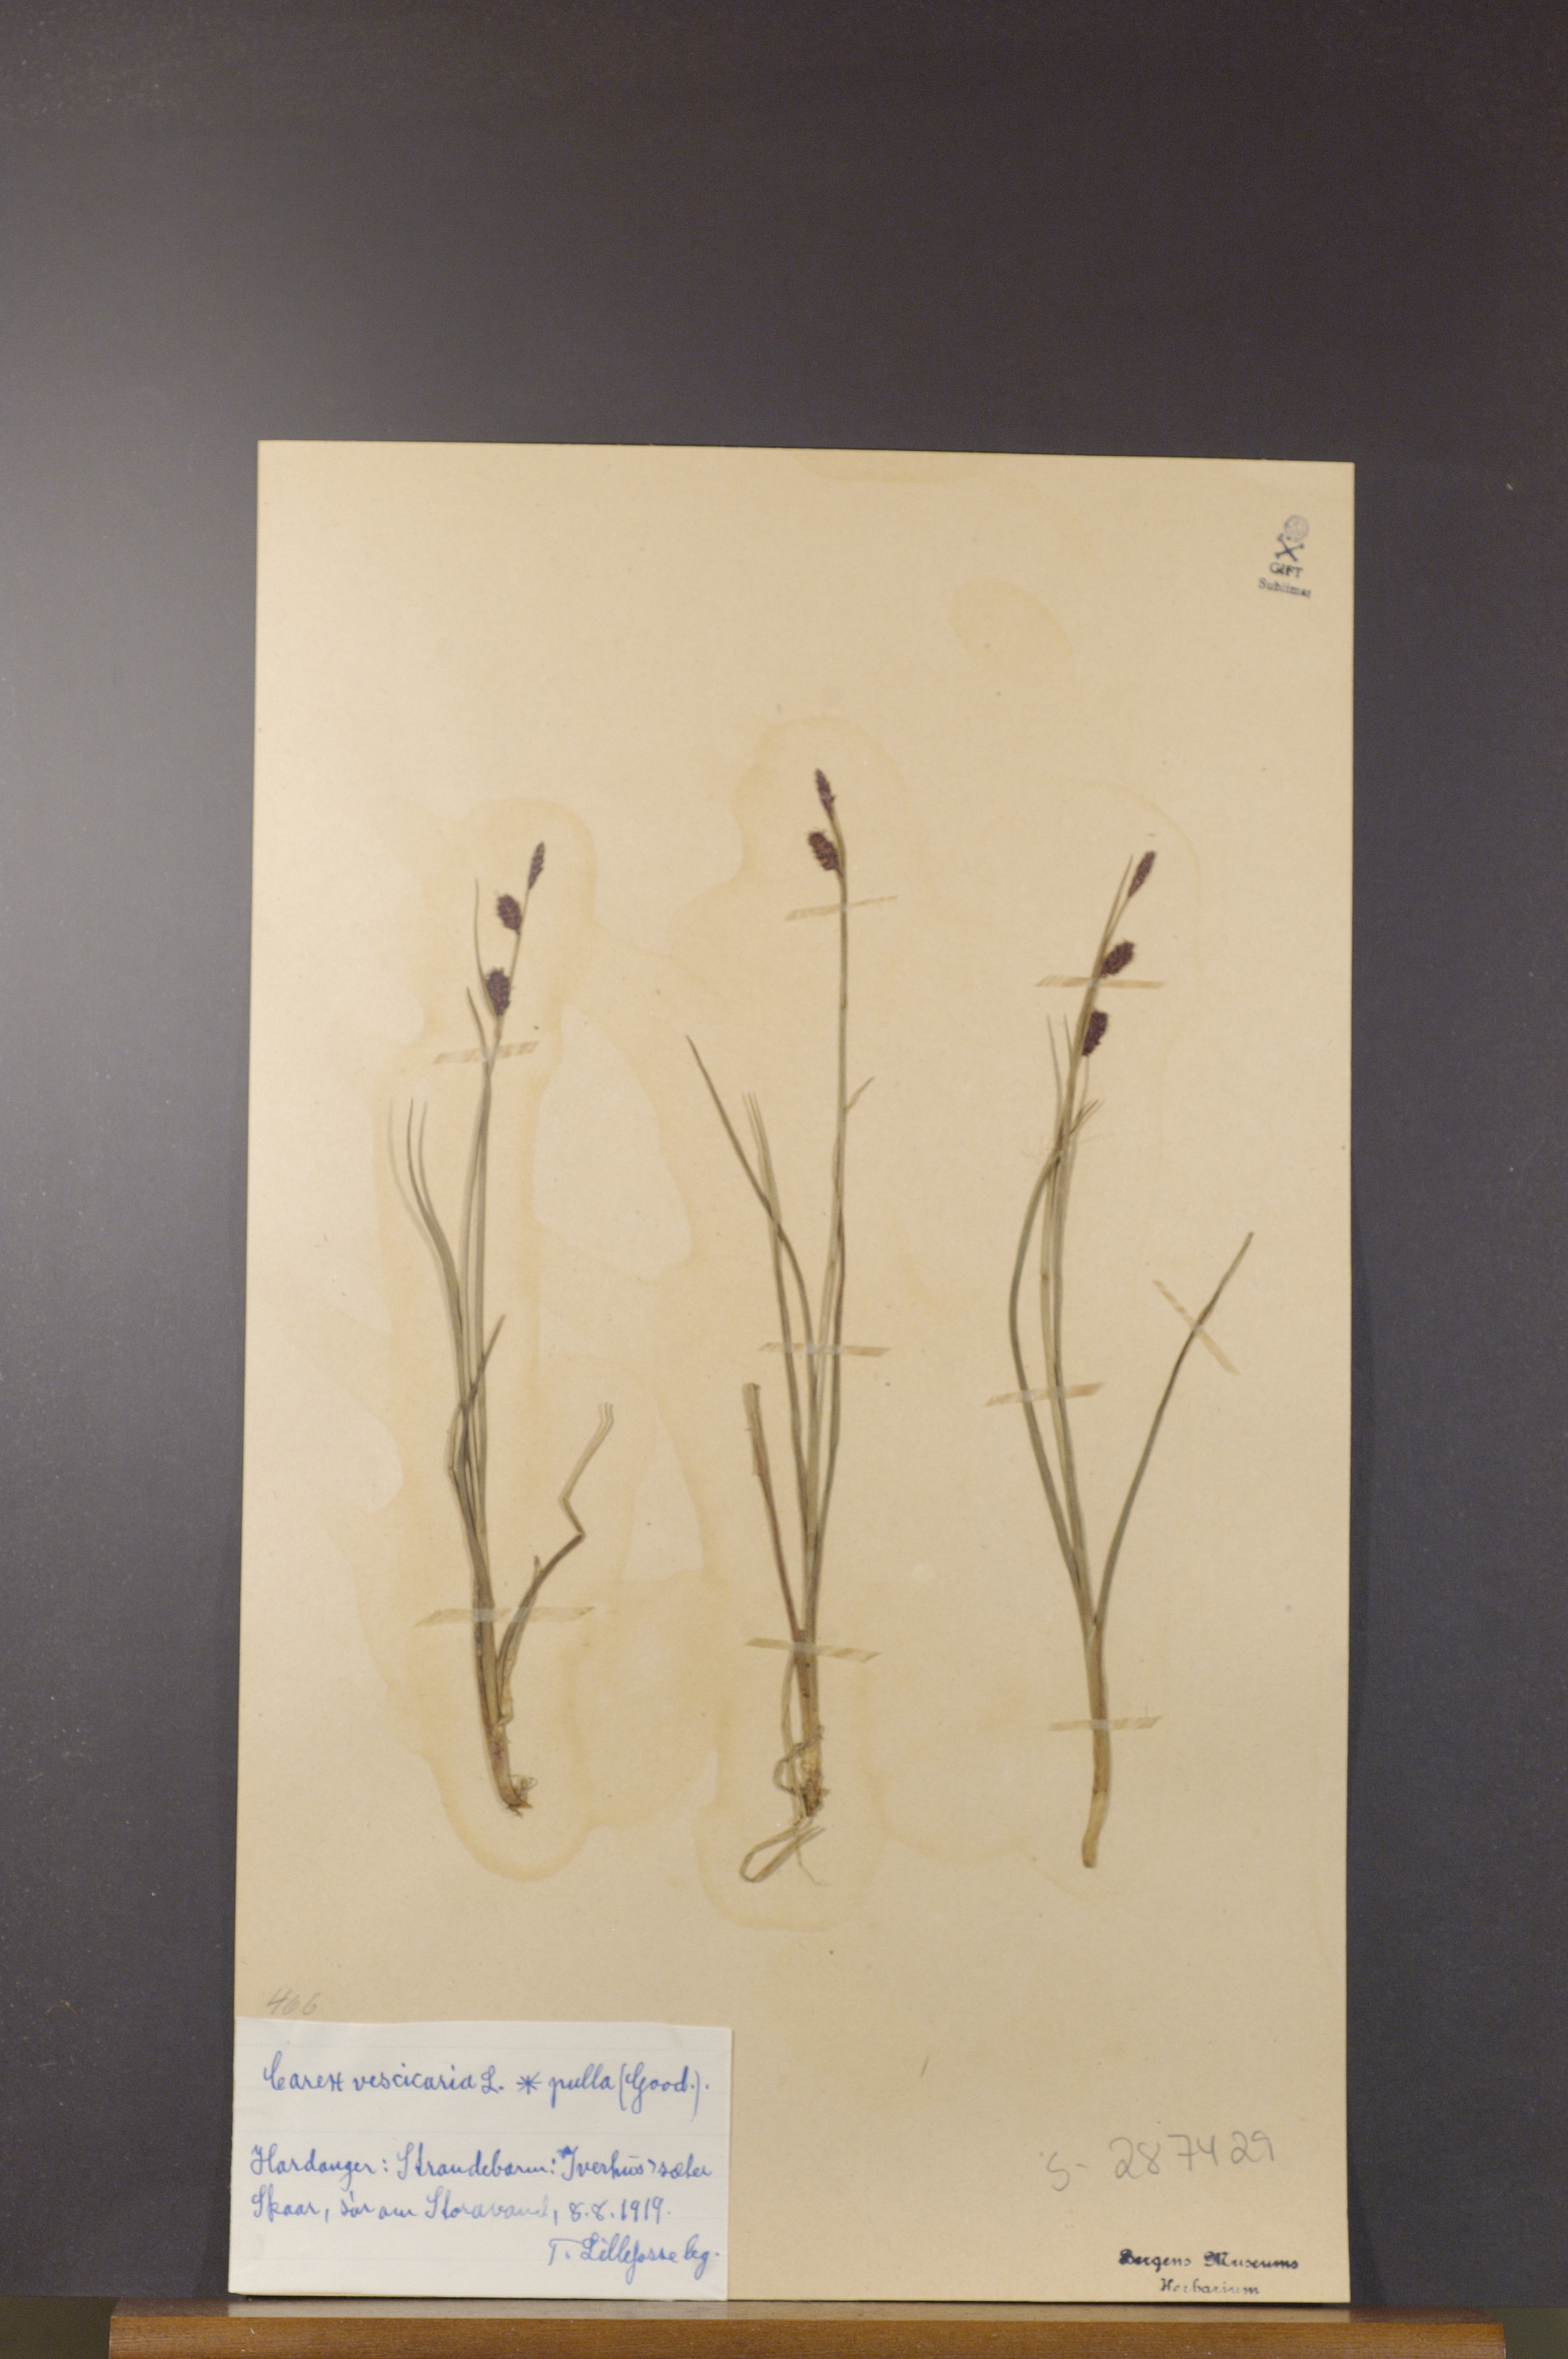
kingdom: Plantae
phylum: Tracheophyta
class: Liliopsida
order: Poales
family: Cyperaceae
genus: Carex
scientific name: Carex saxatilis
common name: Russet sedge
